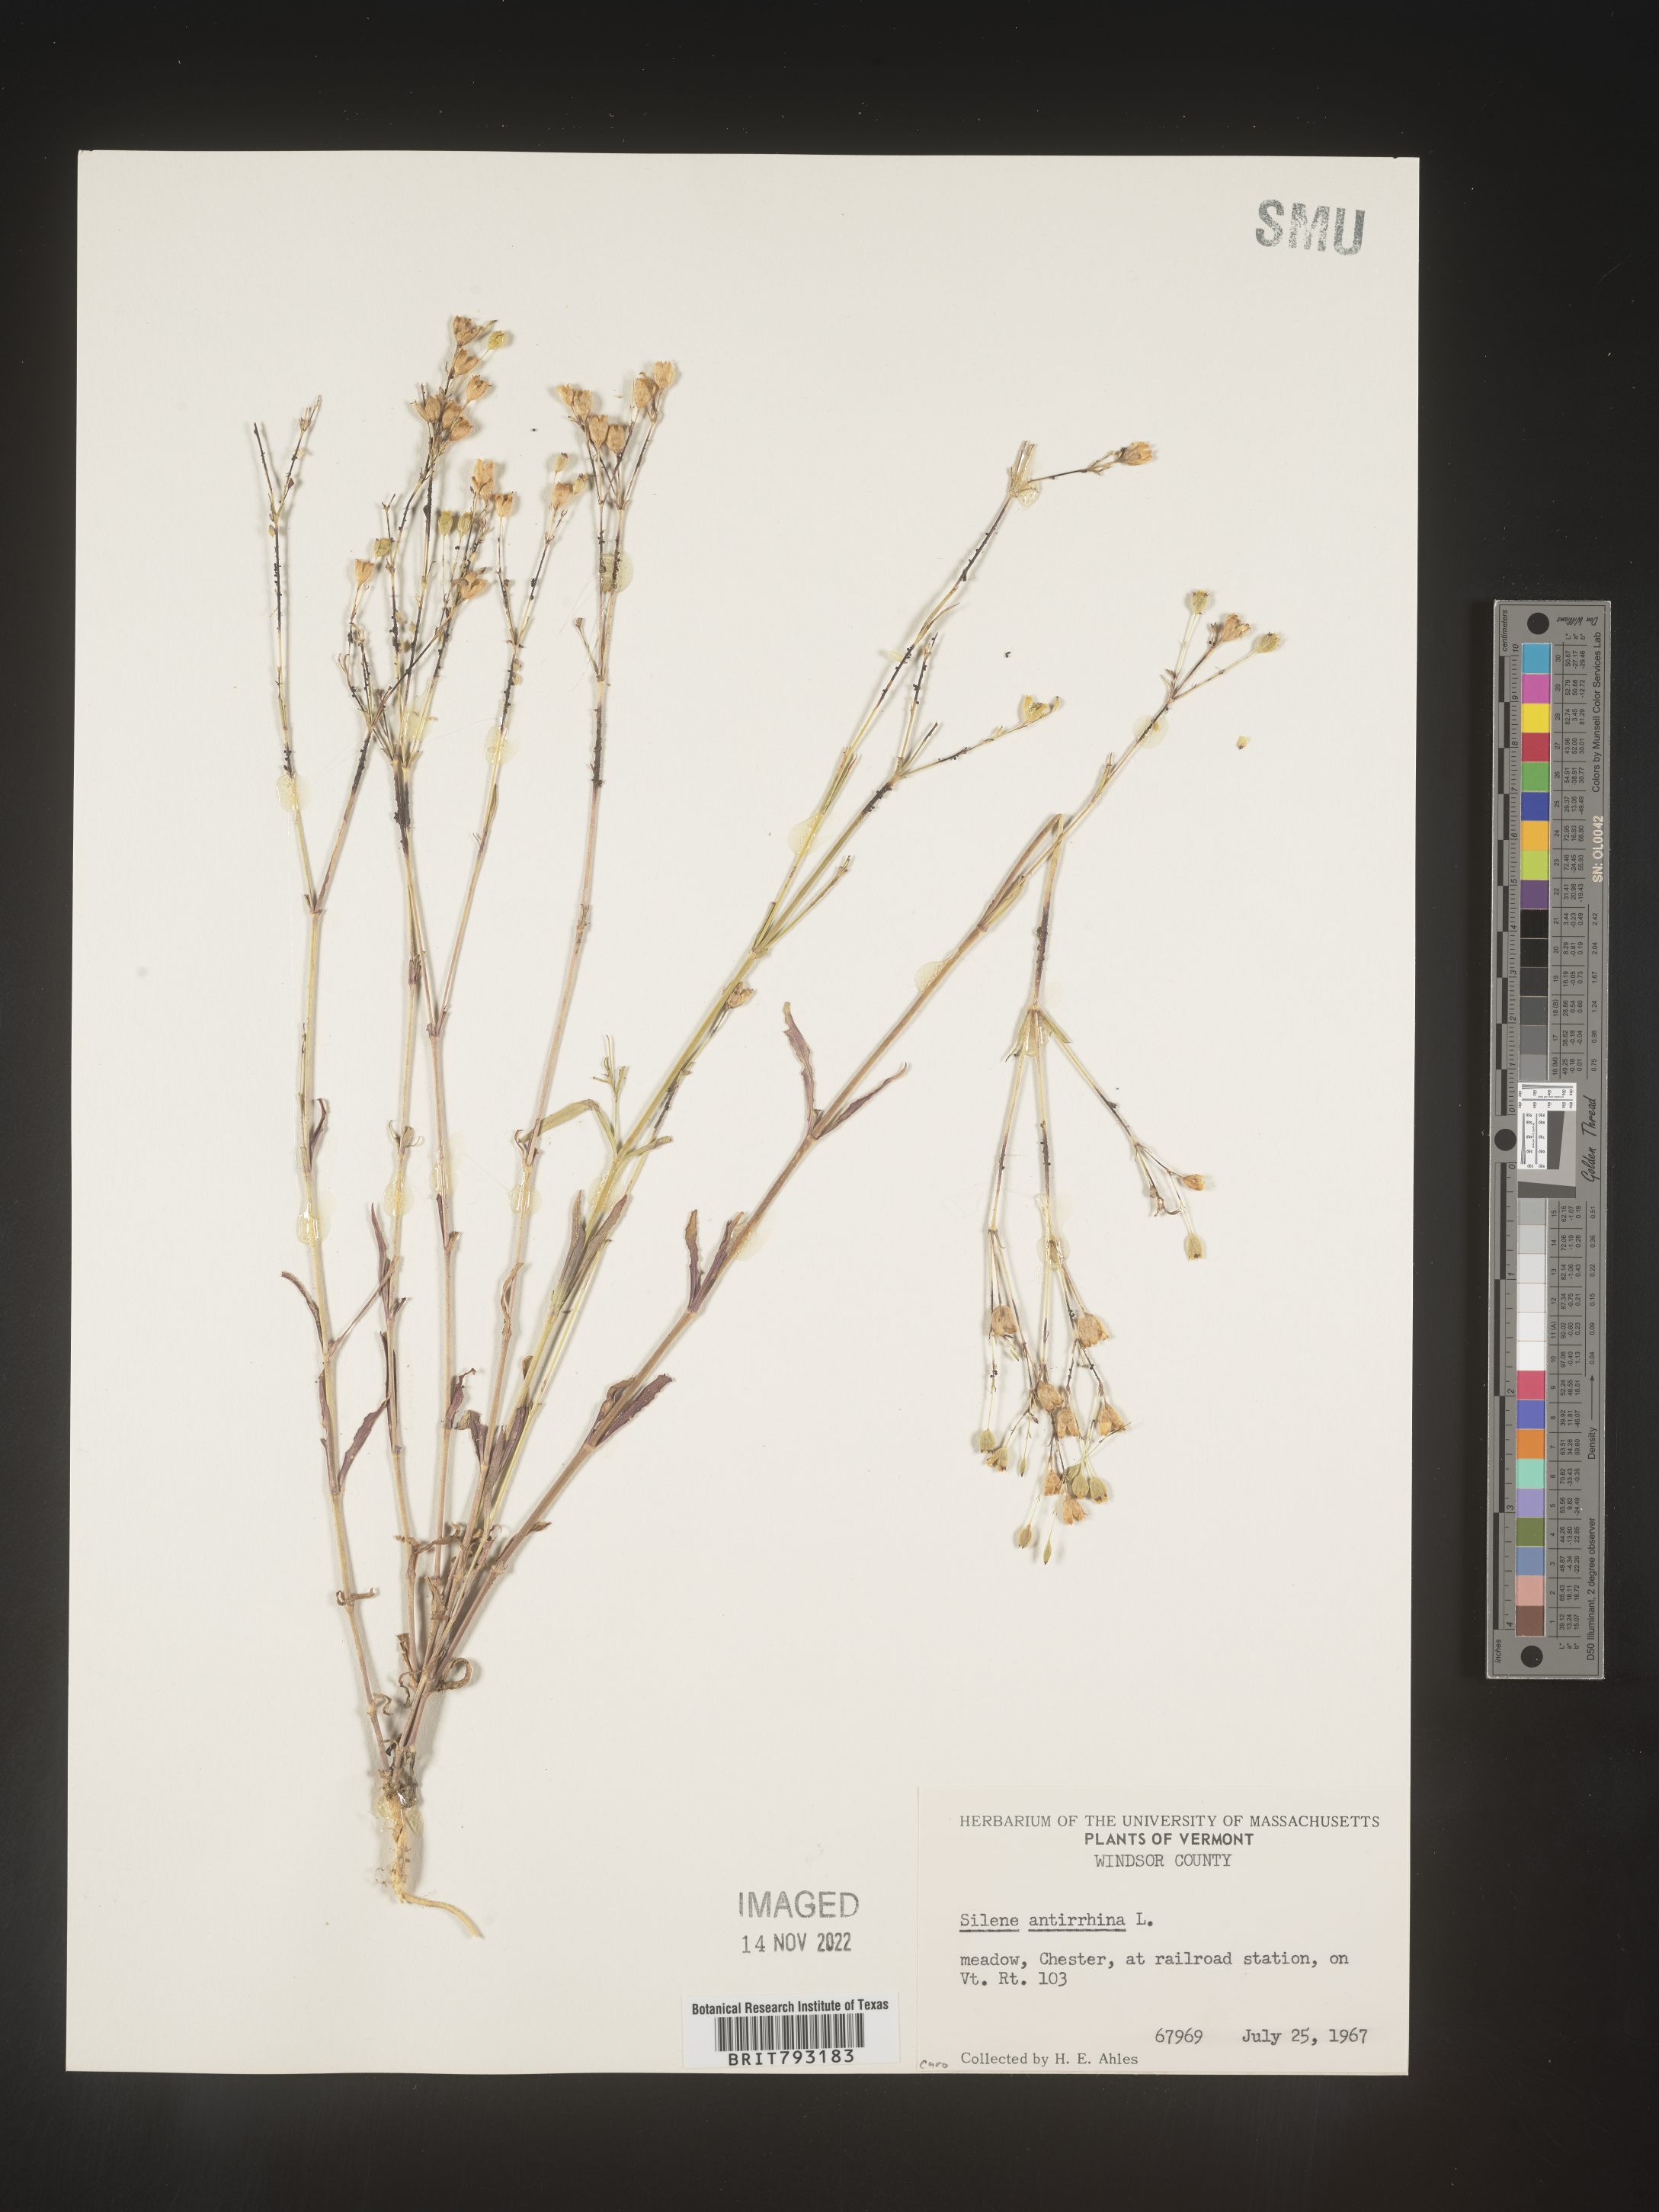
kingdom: Plantae
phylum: Tracheophyta
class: Magnoliopsida
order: Caryophyllales
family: Caryophyllaceae
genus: Silene
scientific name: Silene antirrhina
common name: Sleepy catchfly
